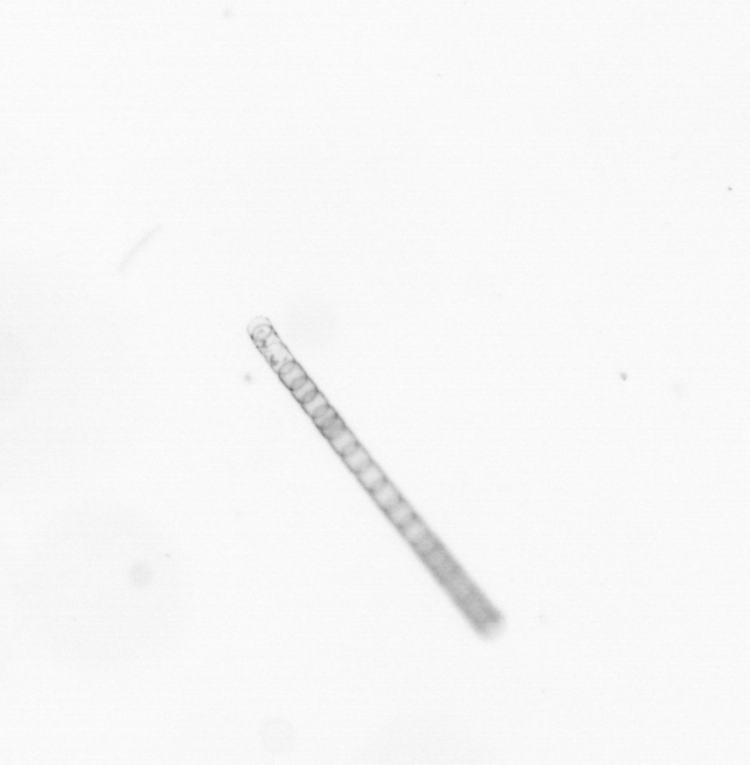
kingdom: Chromista
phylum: Ochrophyta
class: Bacillariophyceae
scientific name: Bacillariophyceae
